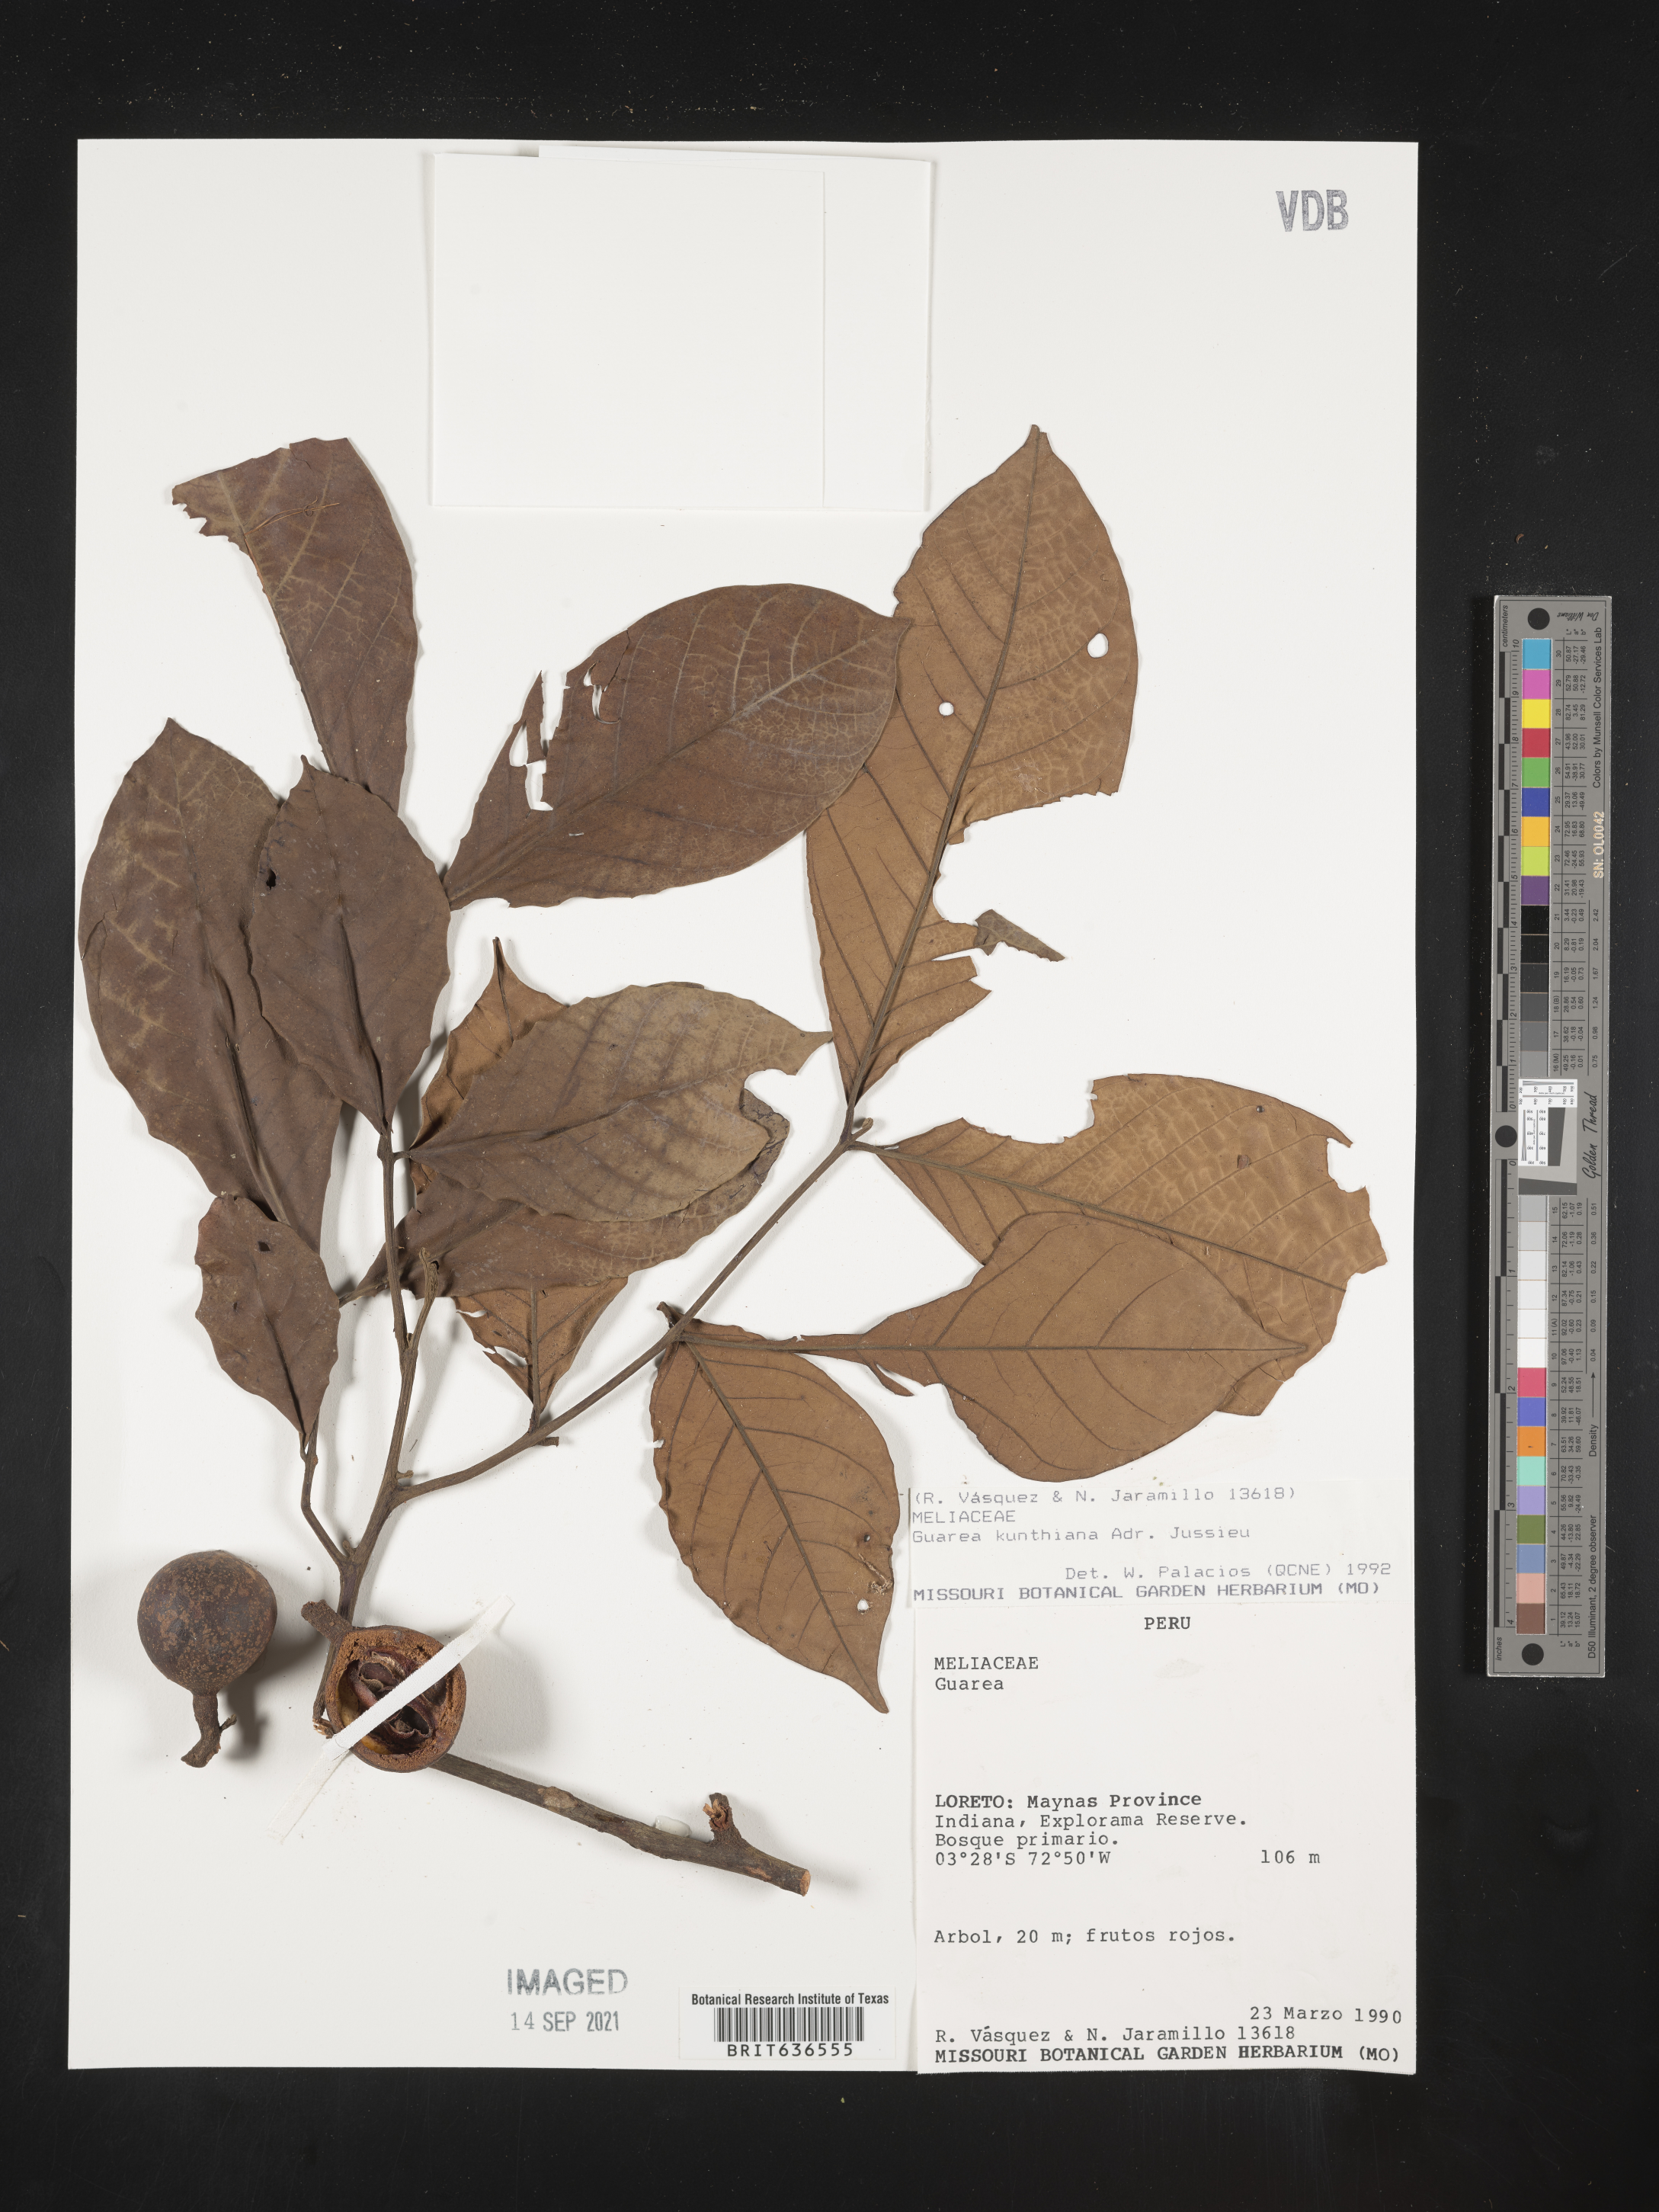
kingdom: Plantae
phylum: Tracheophyta
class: Magnoliopsida
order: Sapindales
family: Meliaceae
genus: Guarea
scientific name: Guarea
